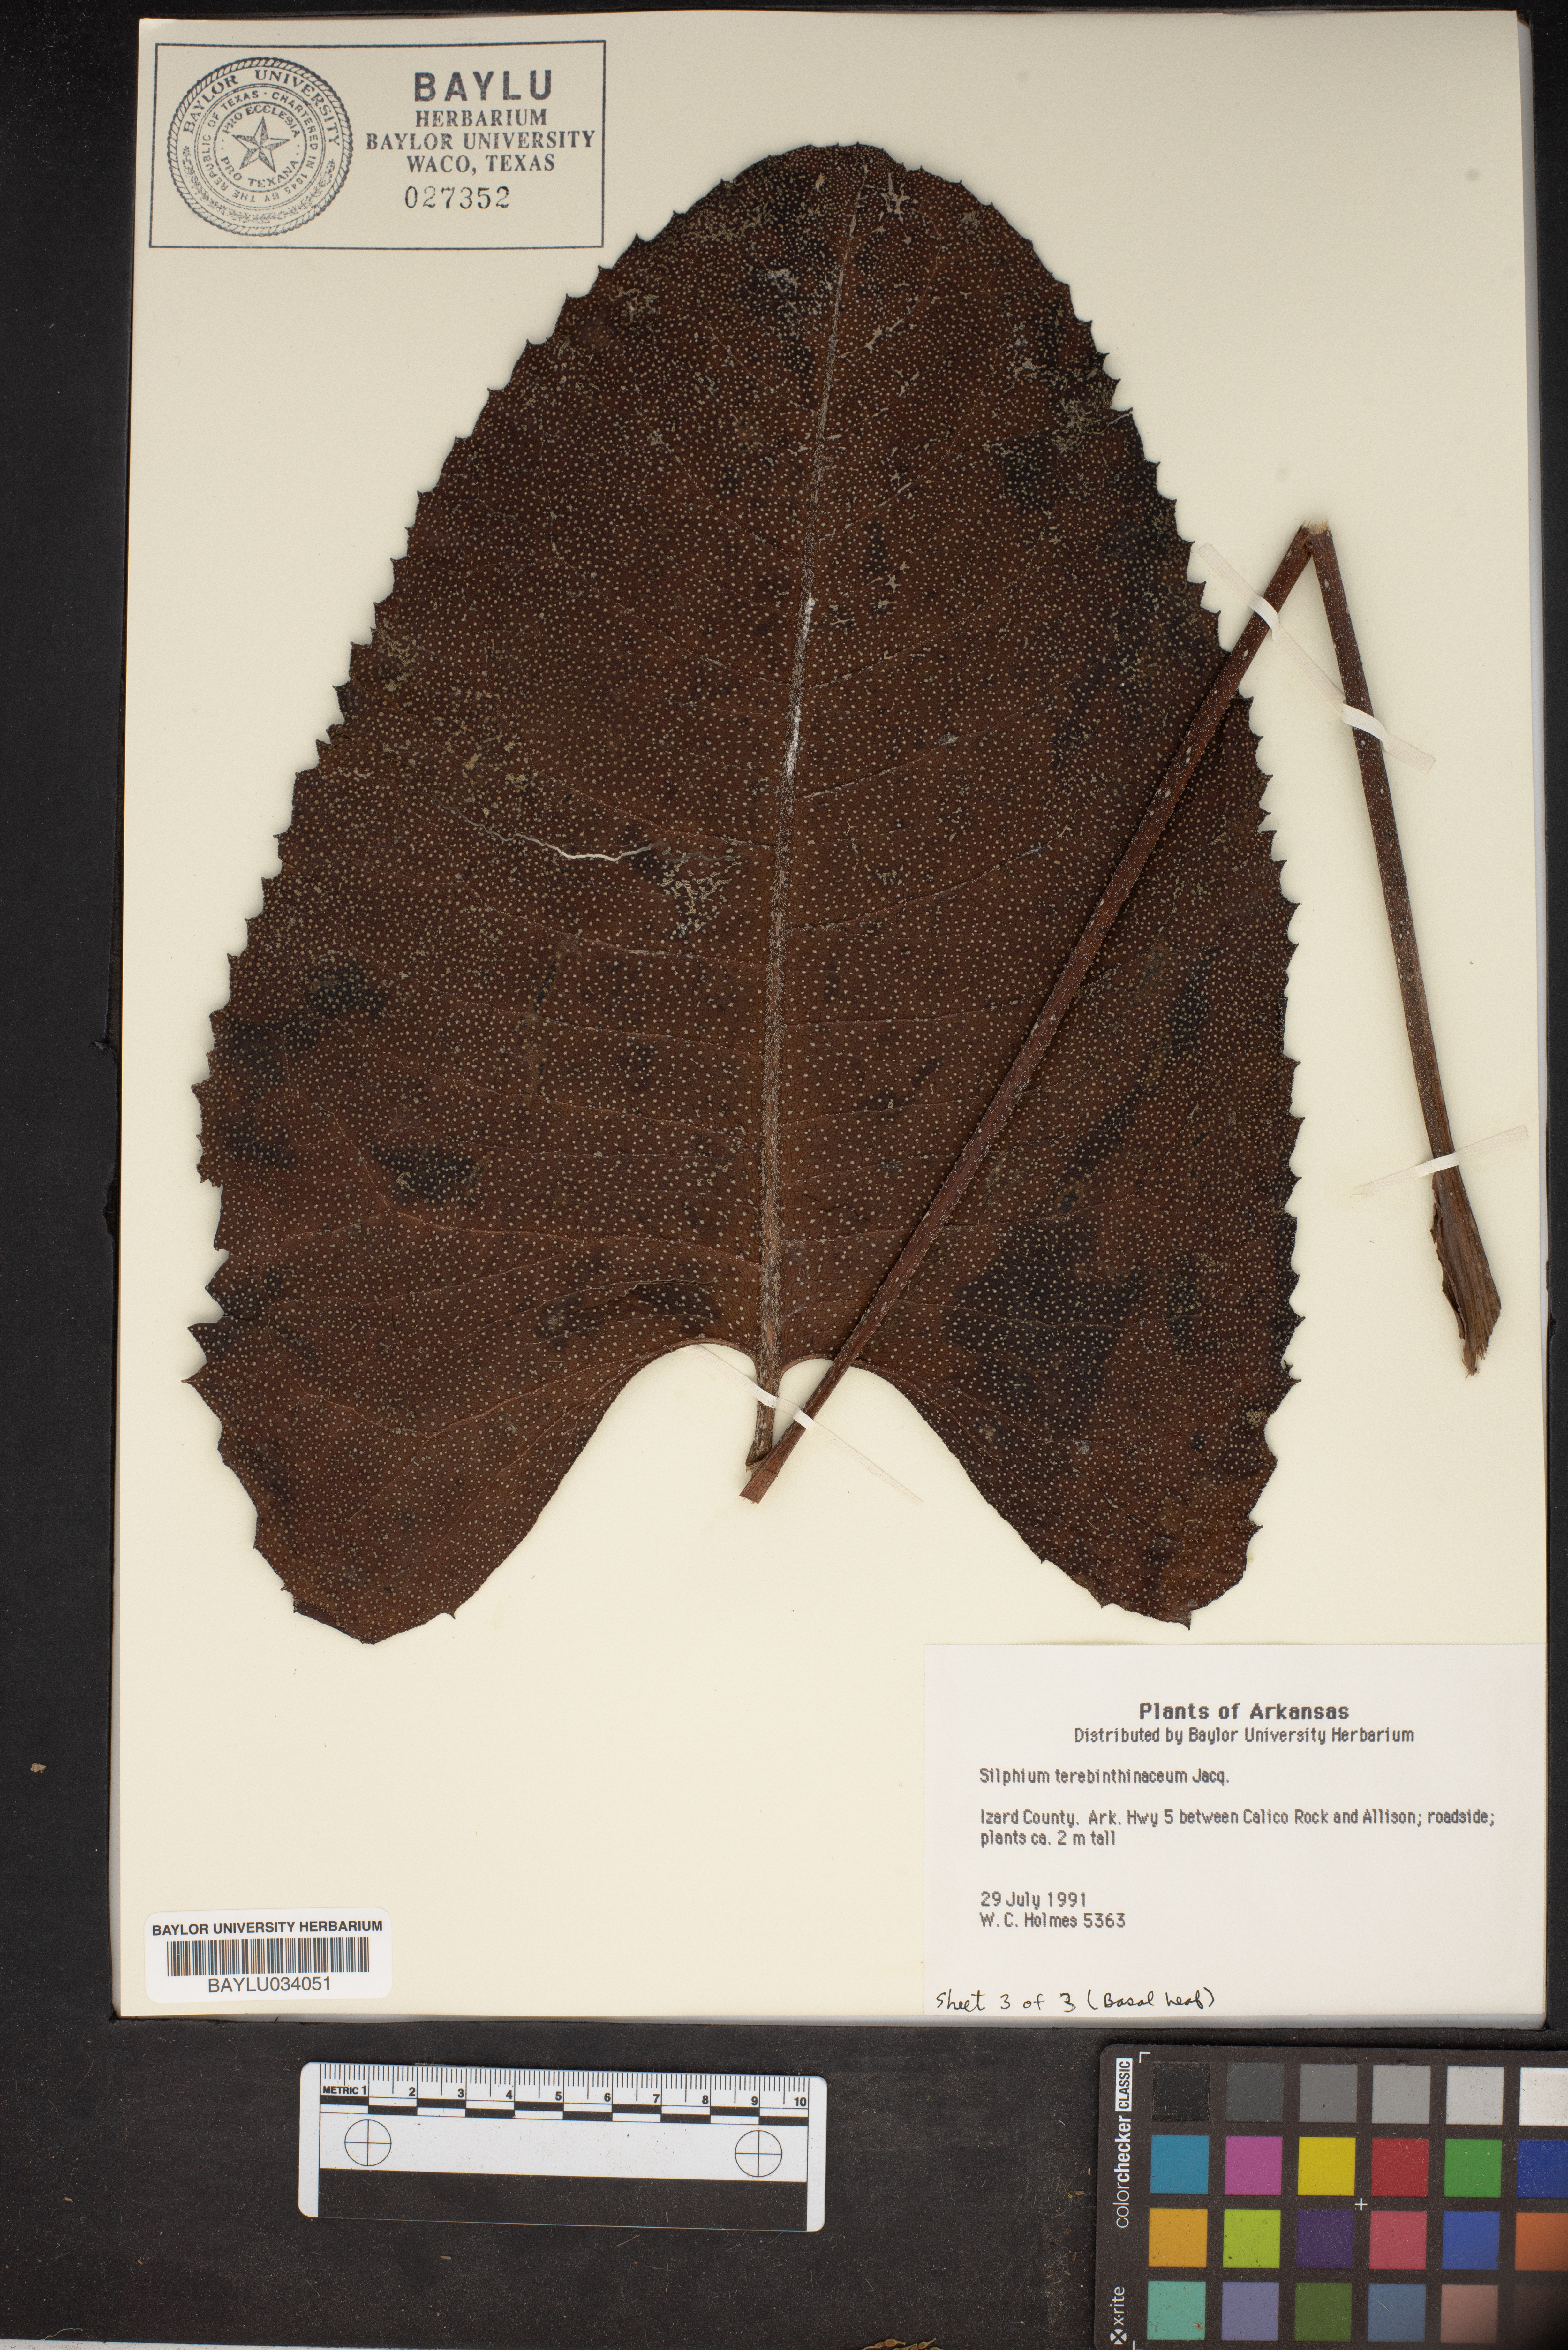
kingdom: Plantae
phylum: Tracheophyta
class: Magnoliopsida
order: Asterales
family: Asteraceae
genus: Silphium
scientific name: Silphium terebinthinaceum
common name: Basal-leaf rosinweed
